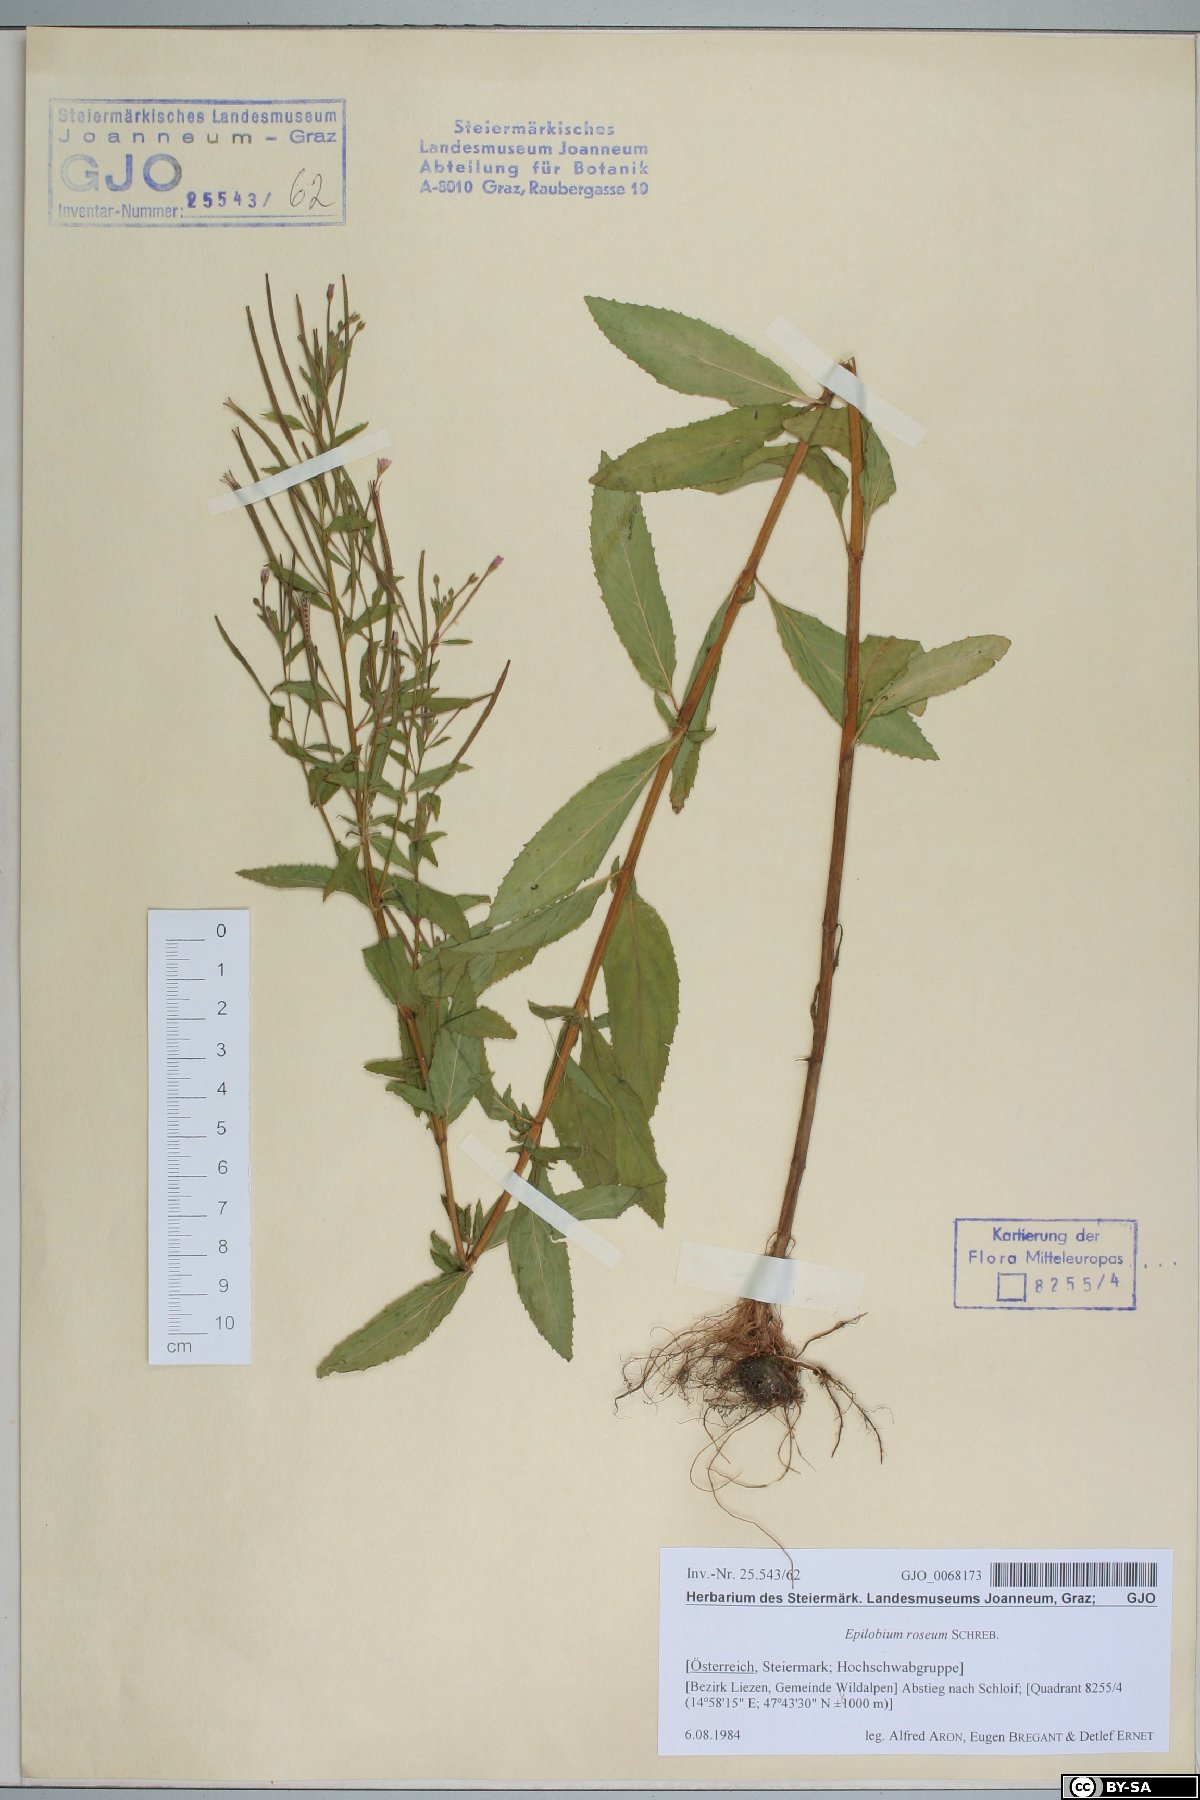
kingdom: Plantae
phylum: Tracheophyta
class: Magnoliopsida
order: Myrtales
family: Onagraceae
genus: Epilobium
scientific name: Epilobium roseum
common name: Pale willowherb
